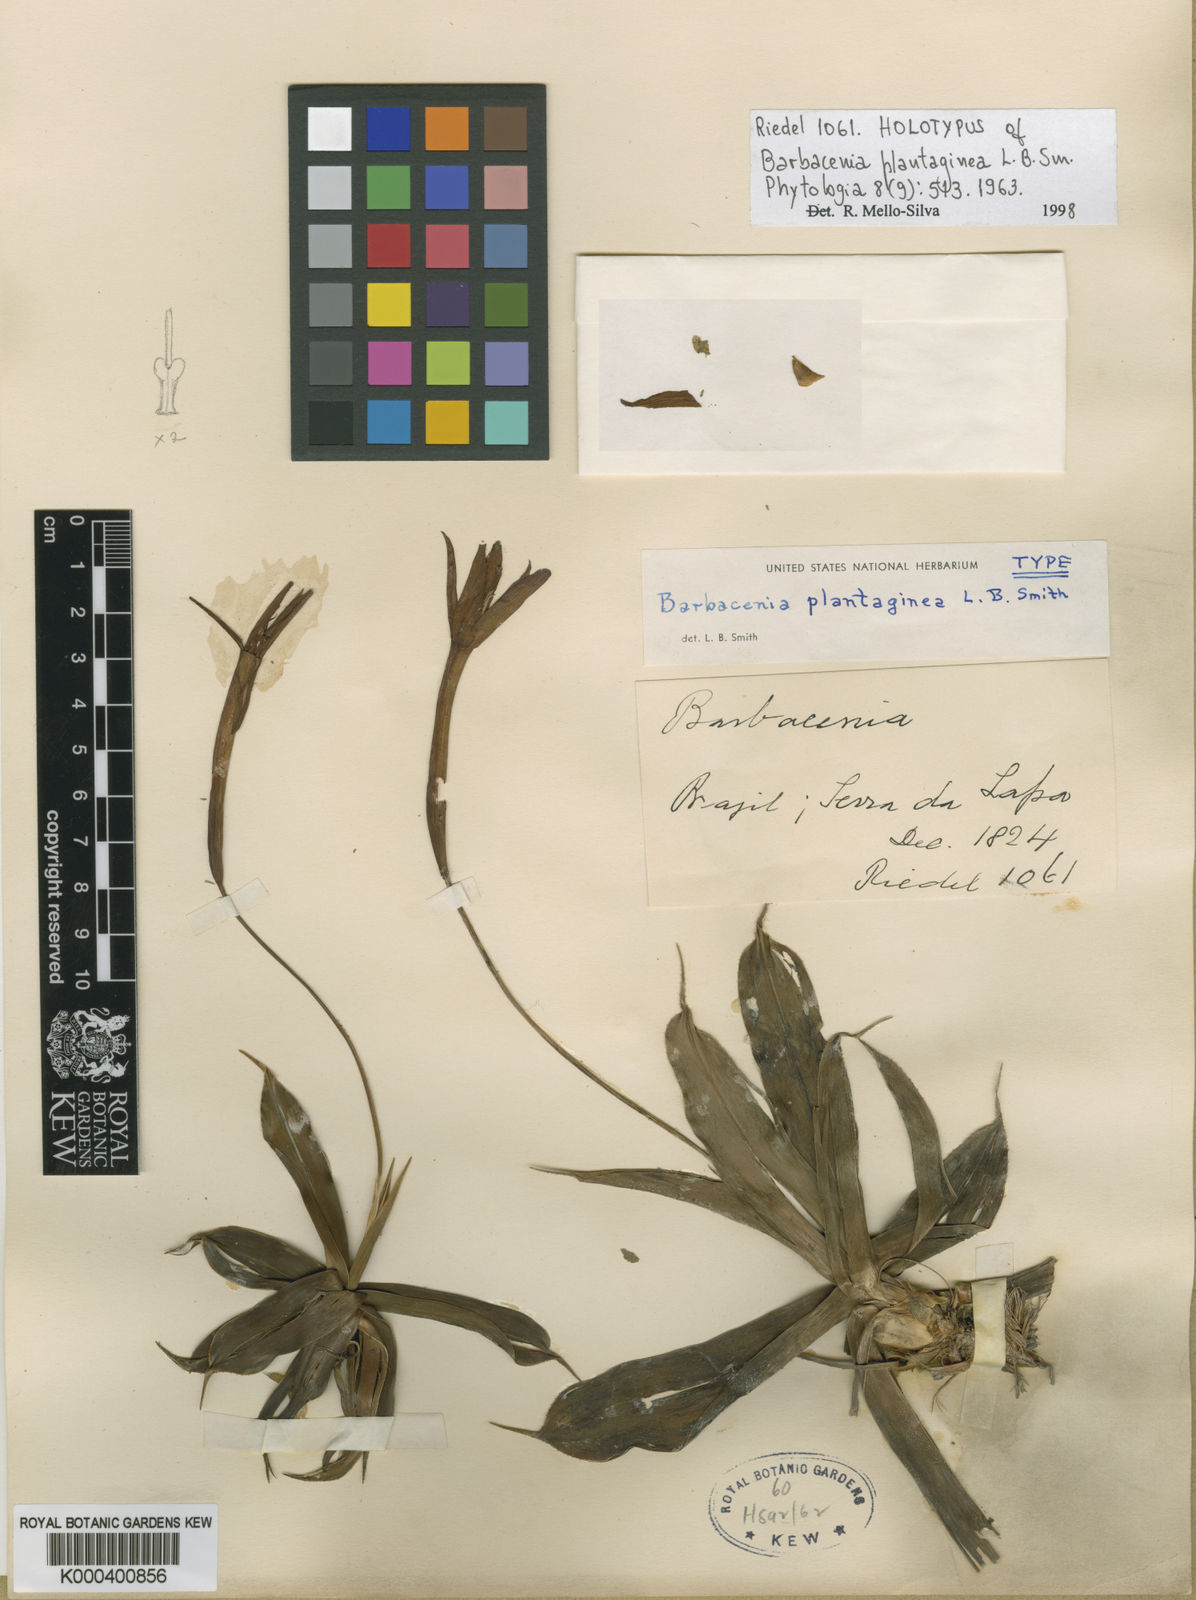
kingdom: Plantae
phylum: Tracheophyta
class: Liliopsida
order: Pandanales
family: Velloziaceae
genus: Barbacenia
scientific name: Barbacenia plantaginea
